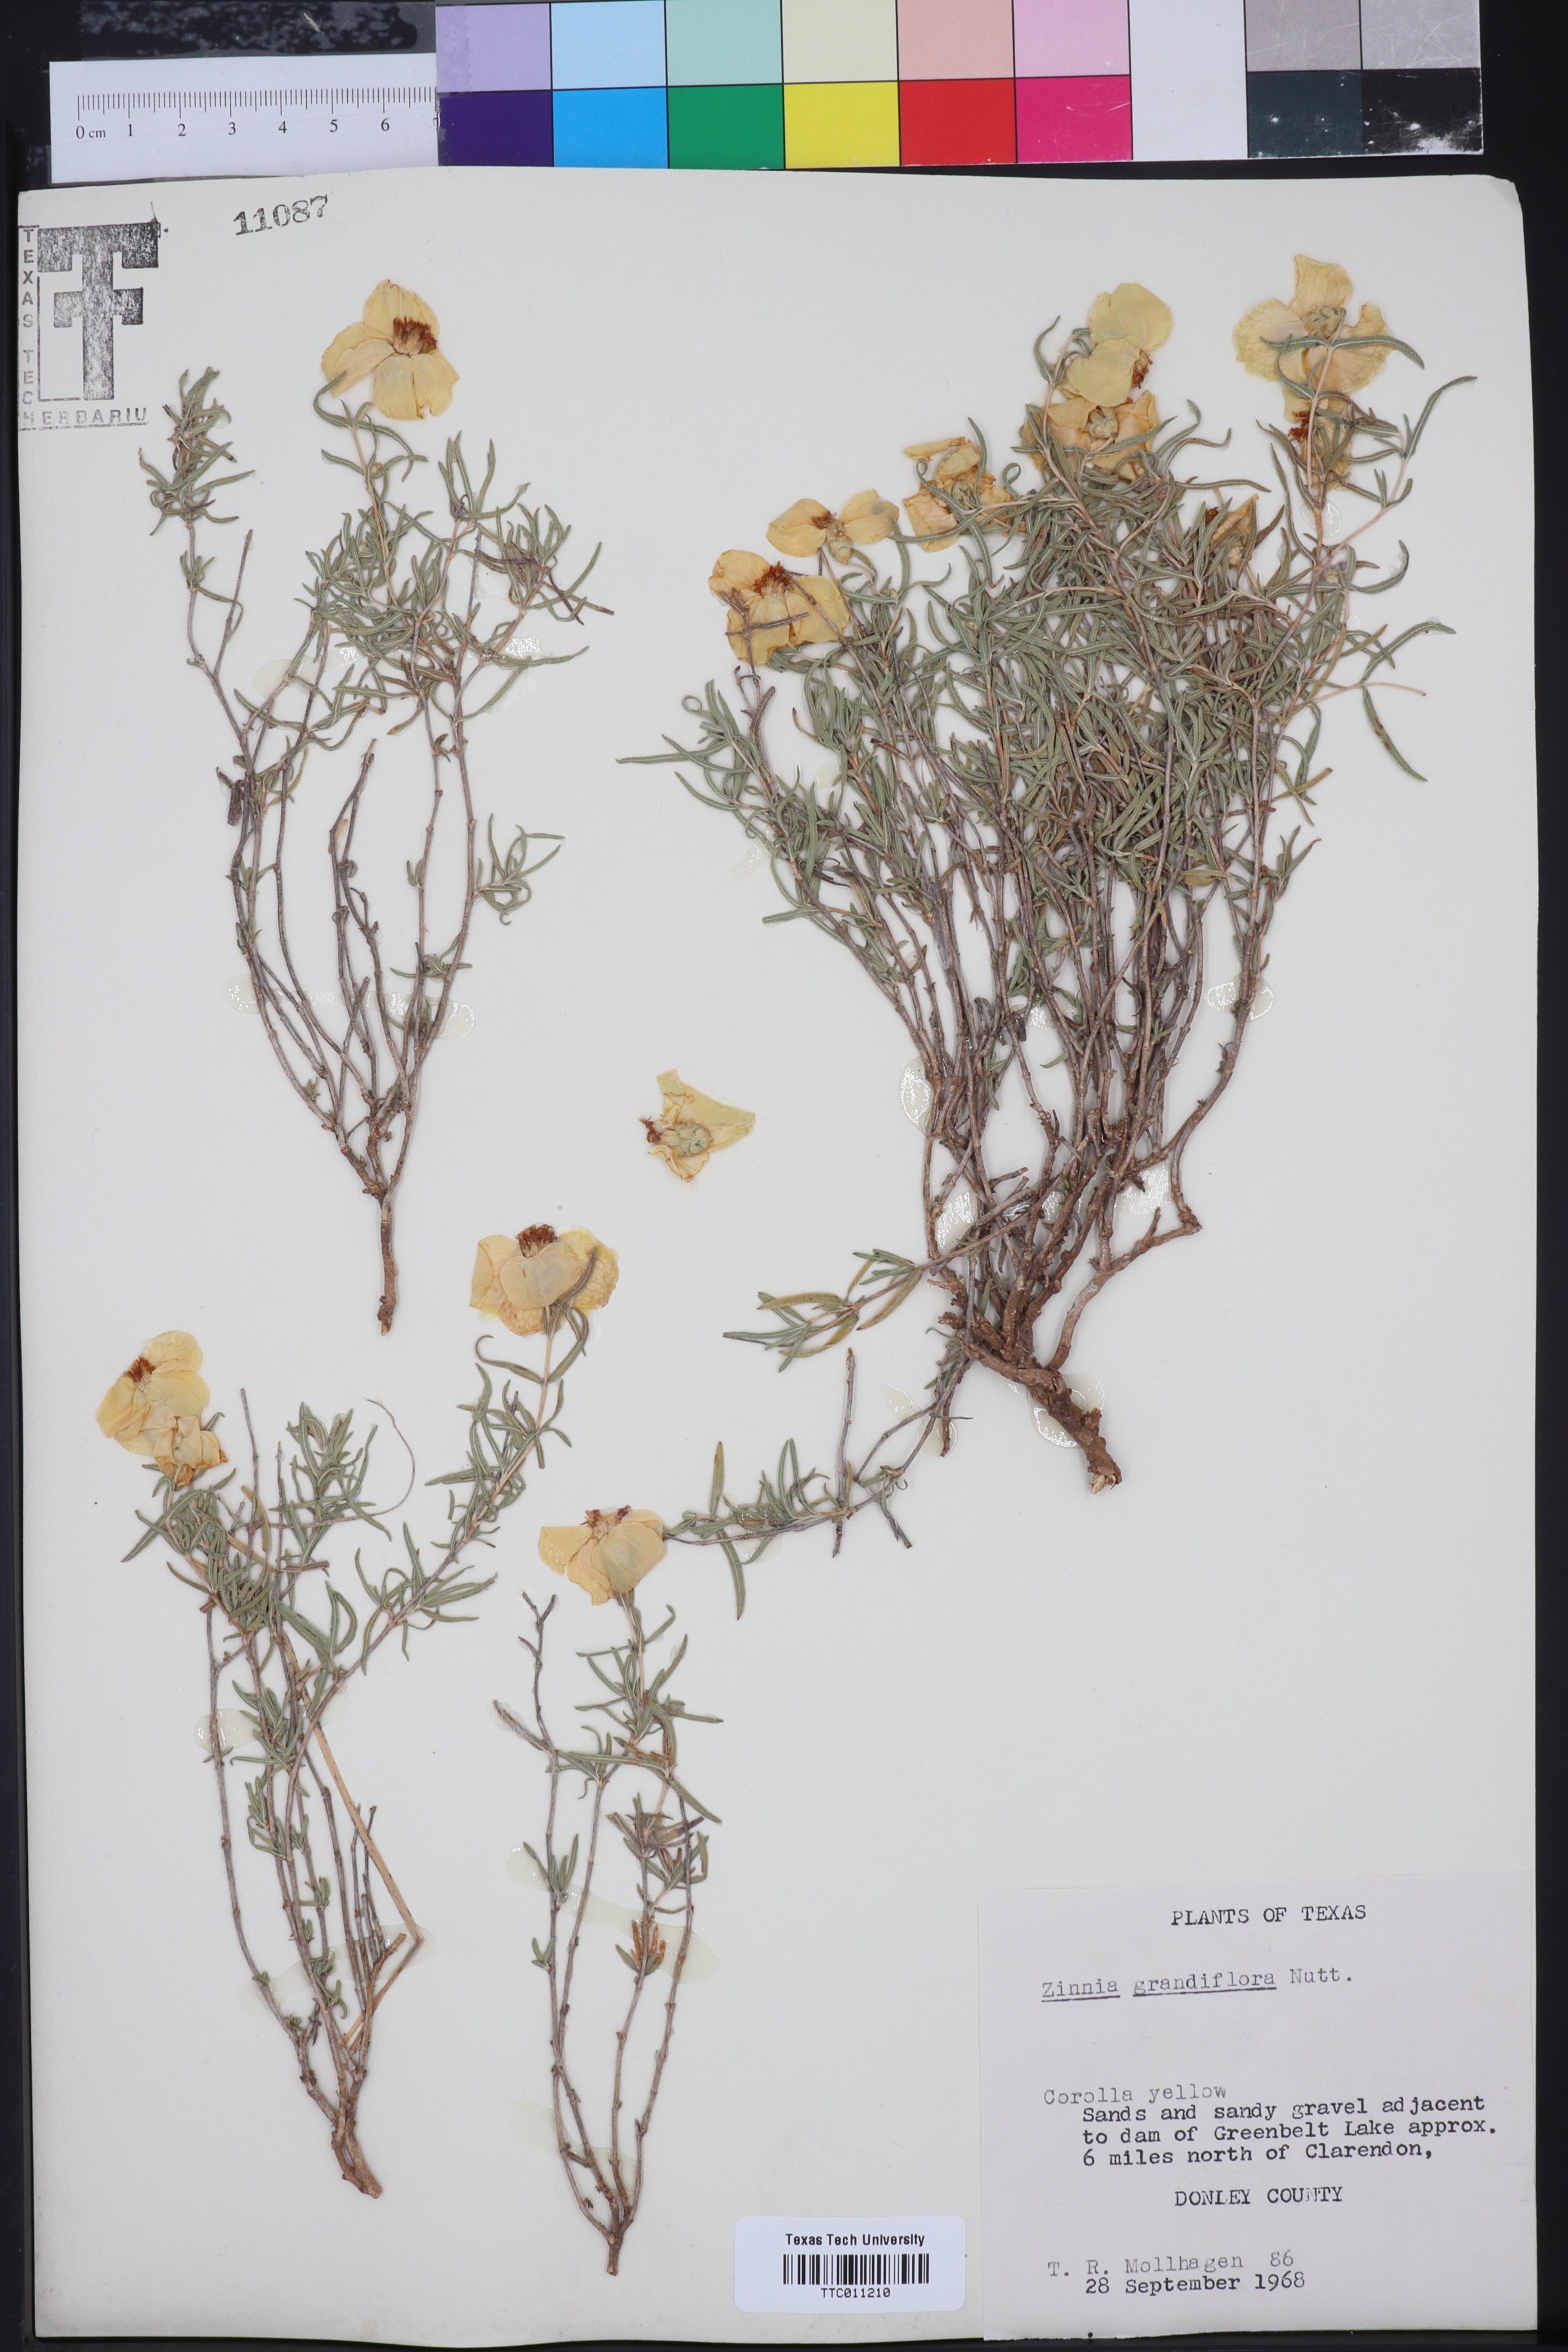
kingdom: Plantae
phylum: Tracheophyta
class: Magnoliopsida
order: Asterales
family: Asteraceae
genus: Zinnia
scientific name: Zinnia grandiflora
